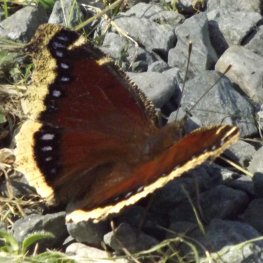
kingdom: Animalia
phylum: Arthropoda
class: Insecta
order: Lepidoptera
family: Nymphalidae
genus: Nymphalis
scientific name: Nymphalis antiopa
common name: Mourning Cloak
